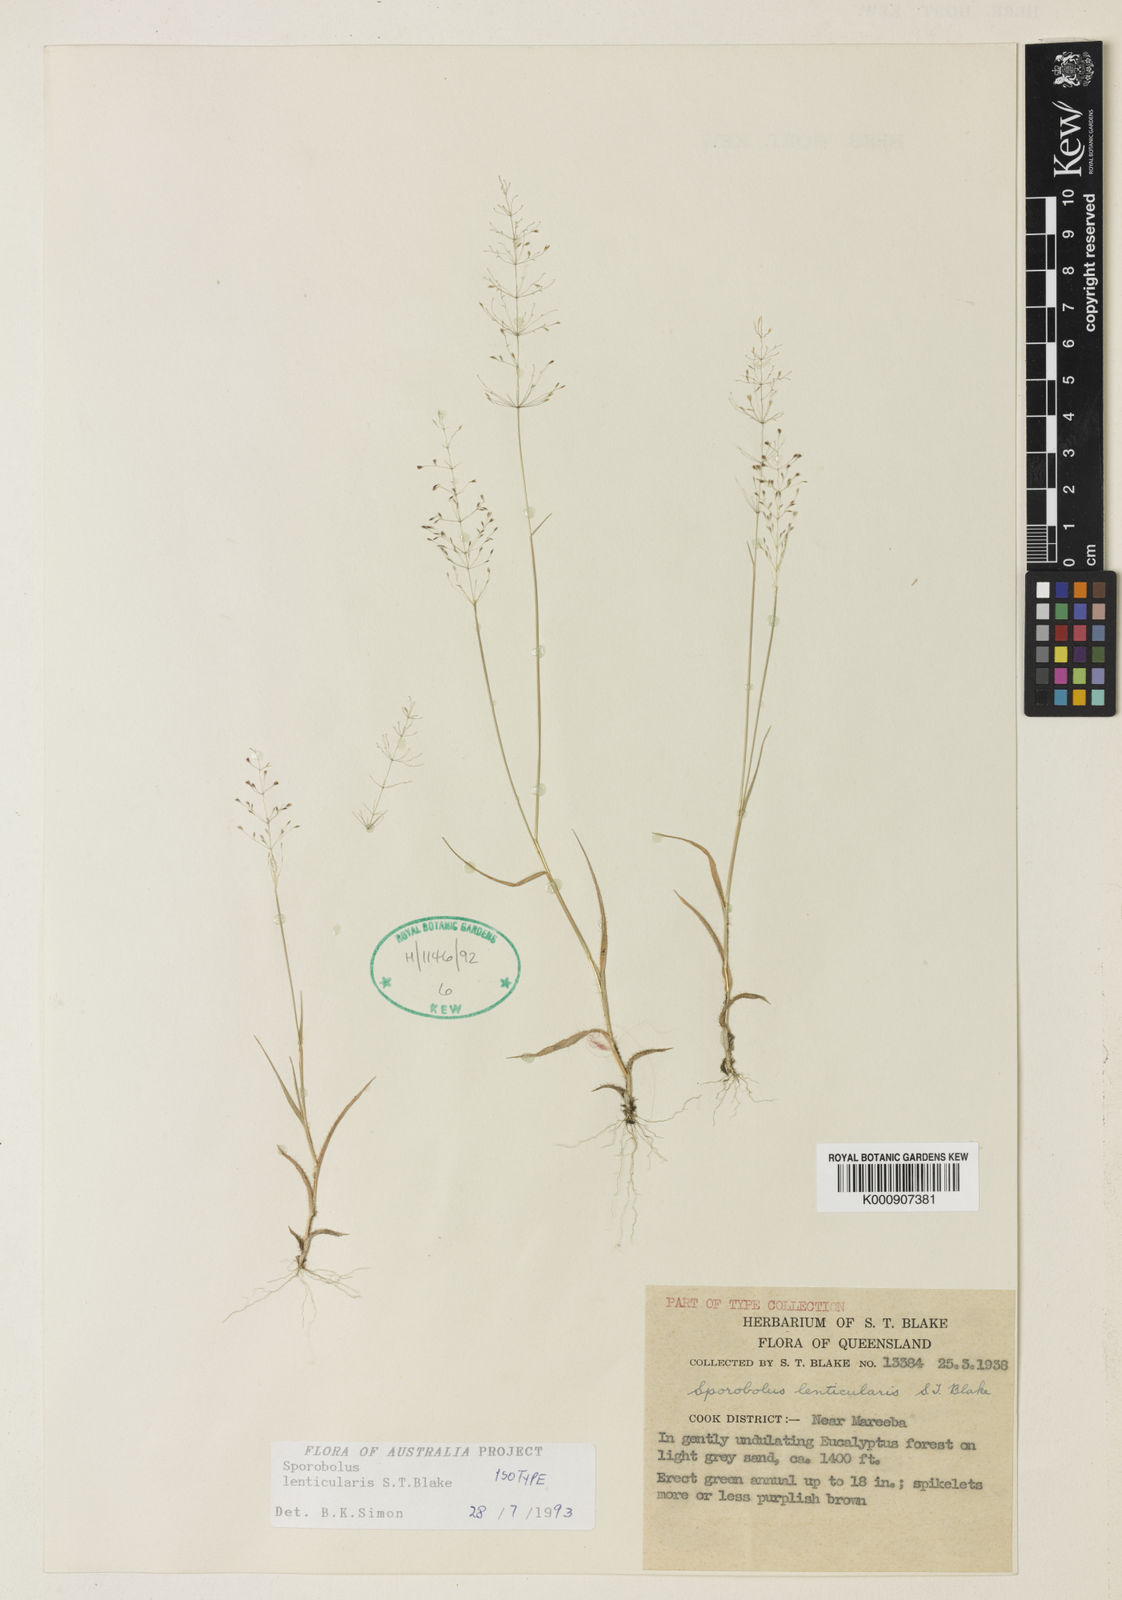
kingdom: Plantae
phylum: Tracheophyta
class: Liliopsida
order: Poales
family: Poaceae
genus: Sporobolus
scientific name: Sporobolus lenticularis
